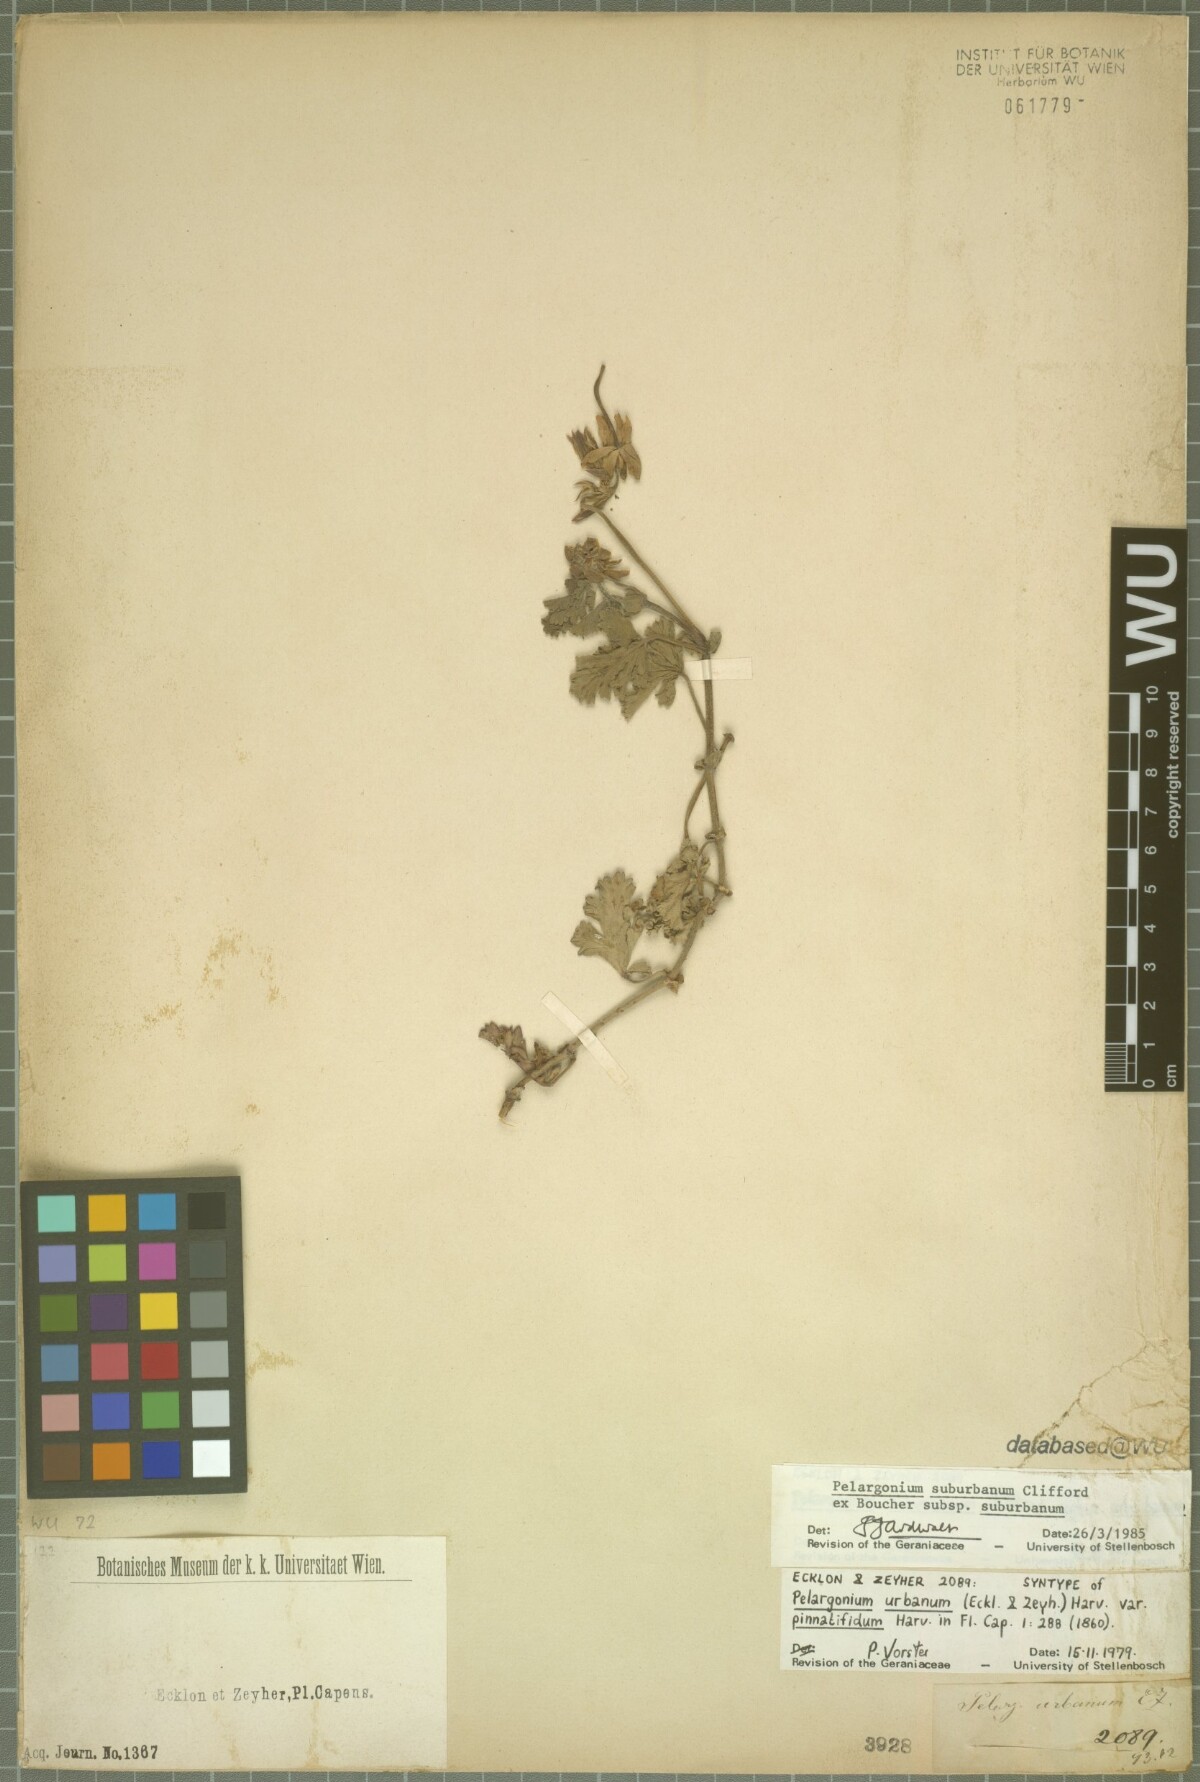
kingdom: Plantae
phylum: Tracheophyta
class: Magnoliopsida
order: Geraniales
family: Geraniaceae
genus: Pelargonium
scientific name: Pelargonium suburbanum
